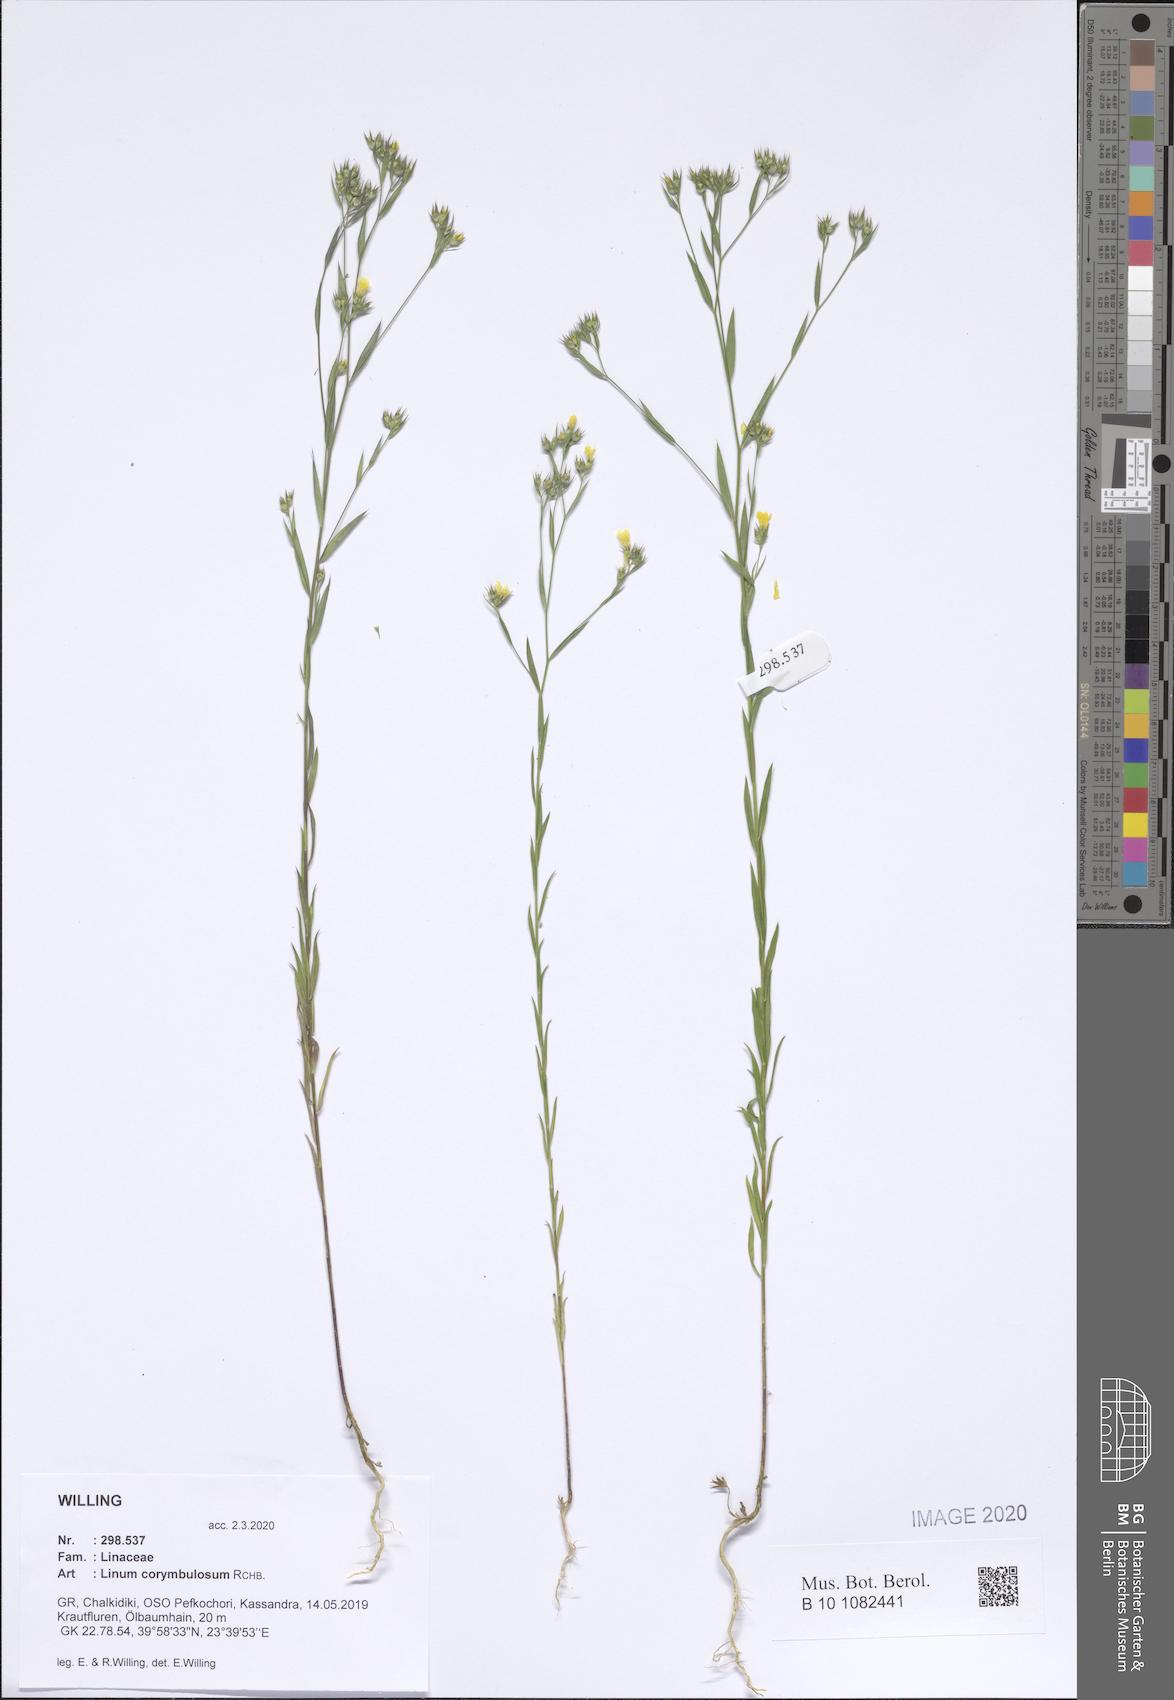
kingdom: Plantae
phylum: Tracheophyta
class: Magnoliopsida
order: Malpighiales
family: Linaceae
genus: Linum
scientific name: Linum corymbulosum
